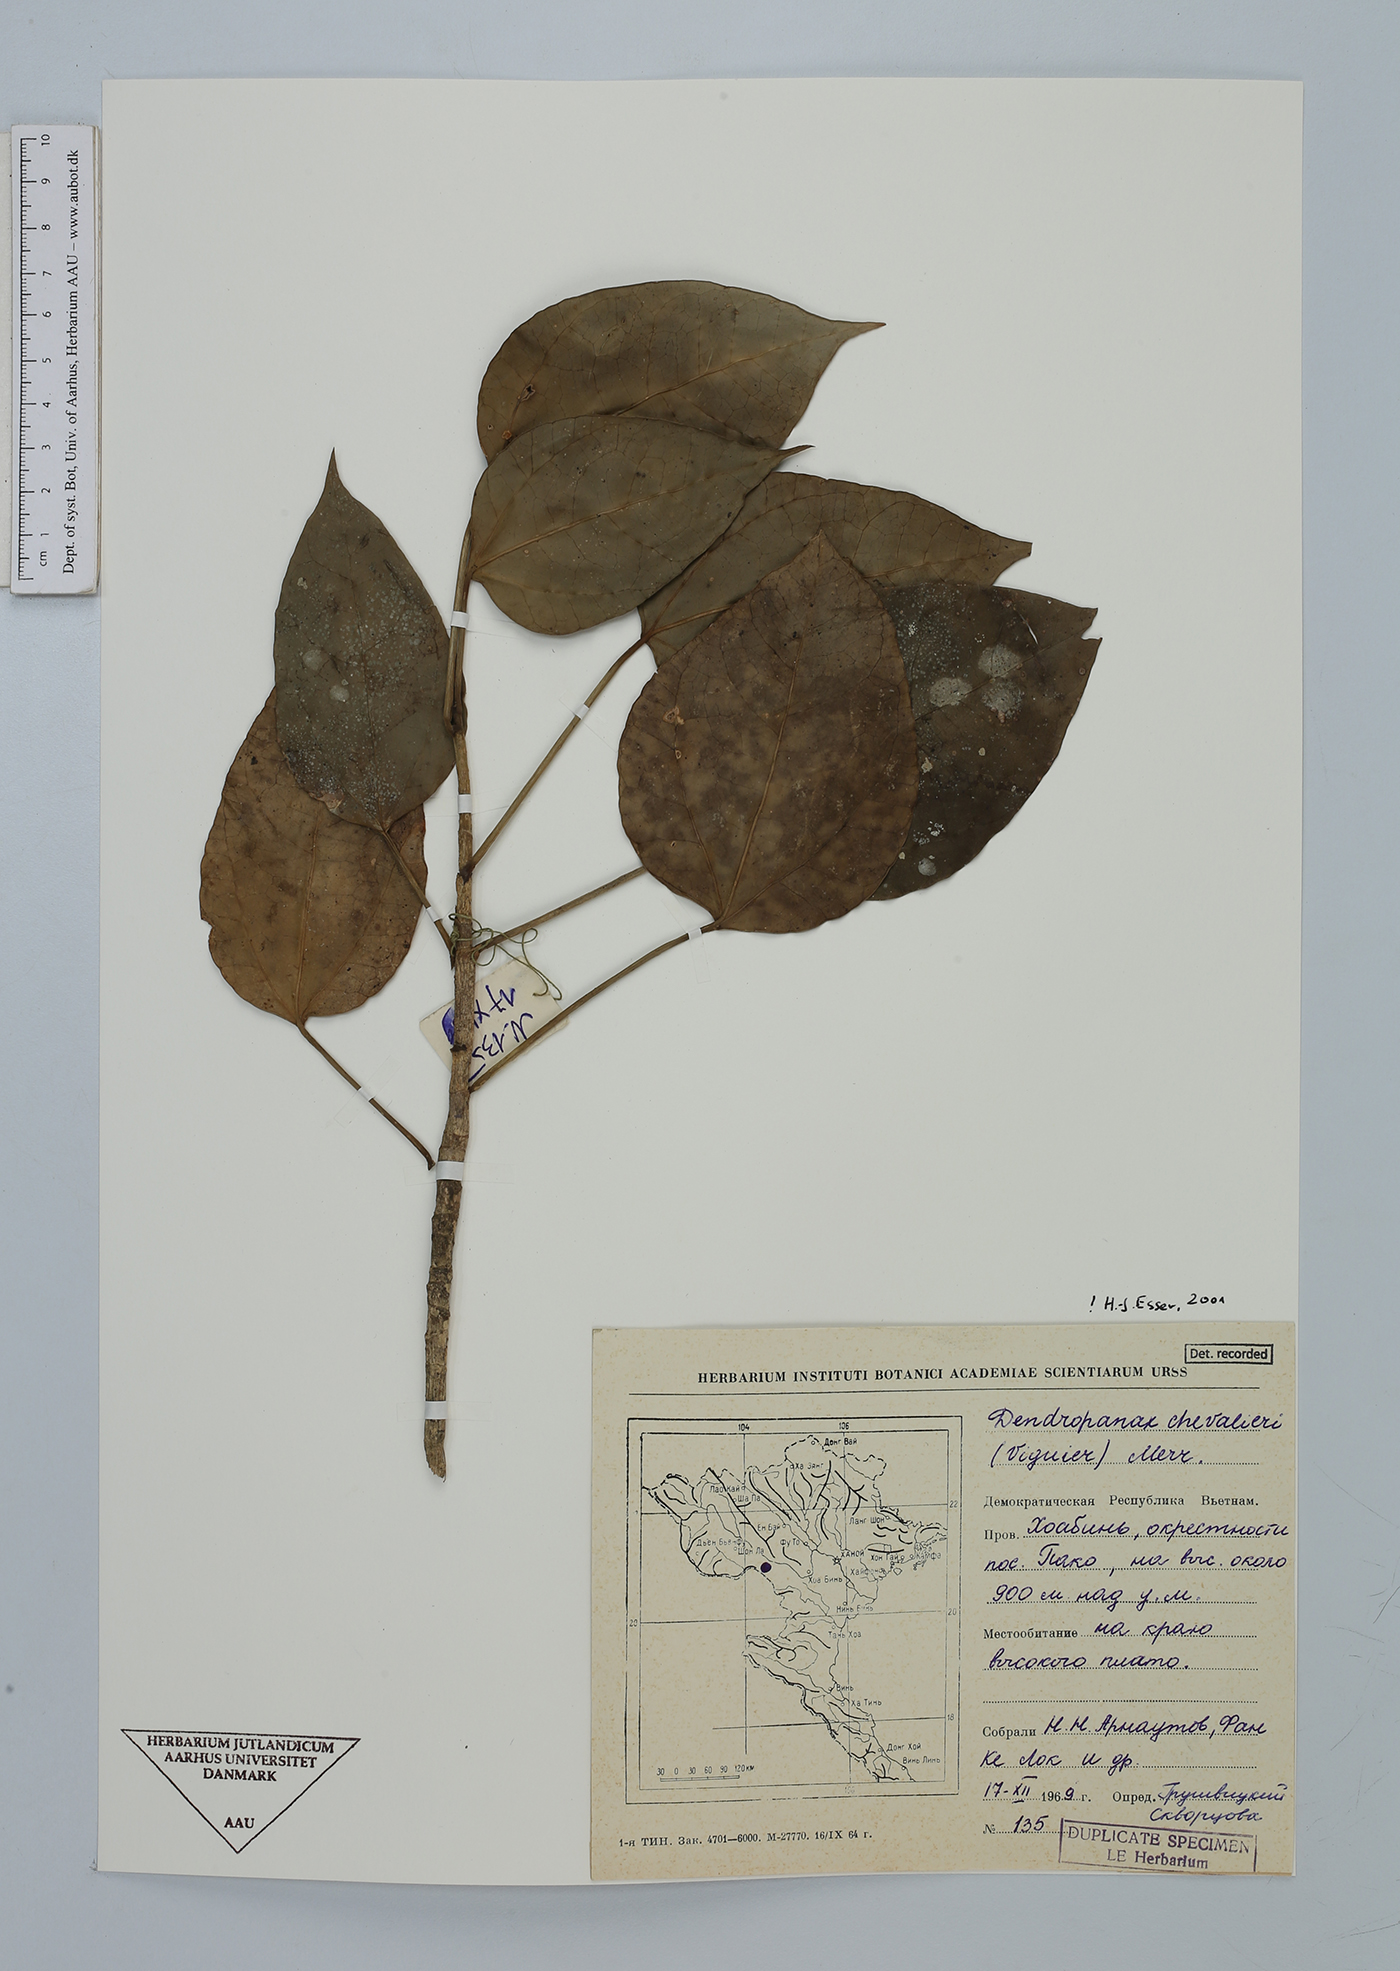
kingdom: Plantae
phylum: Tracheophyta
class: Magnoliopsida
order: Apiales
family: Araliaceae
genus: Dendropanax
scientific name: Dendropanax chevalieri
